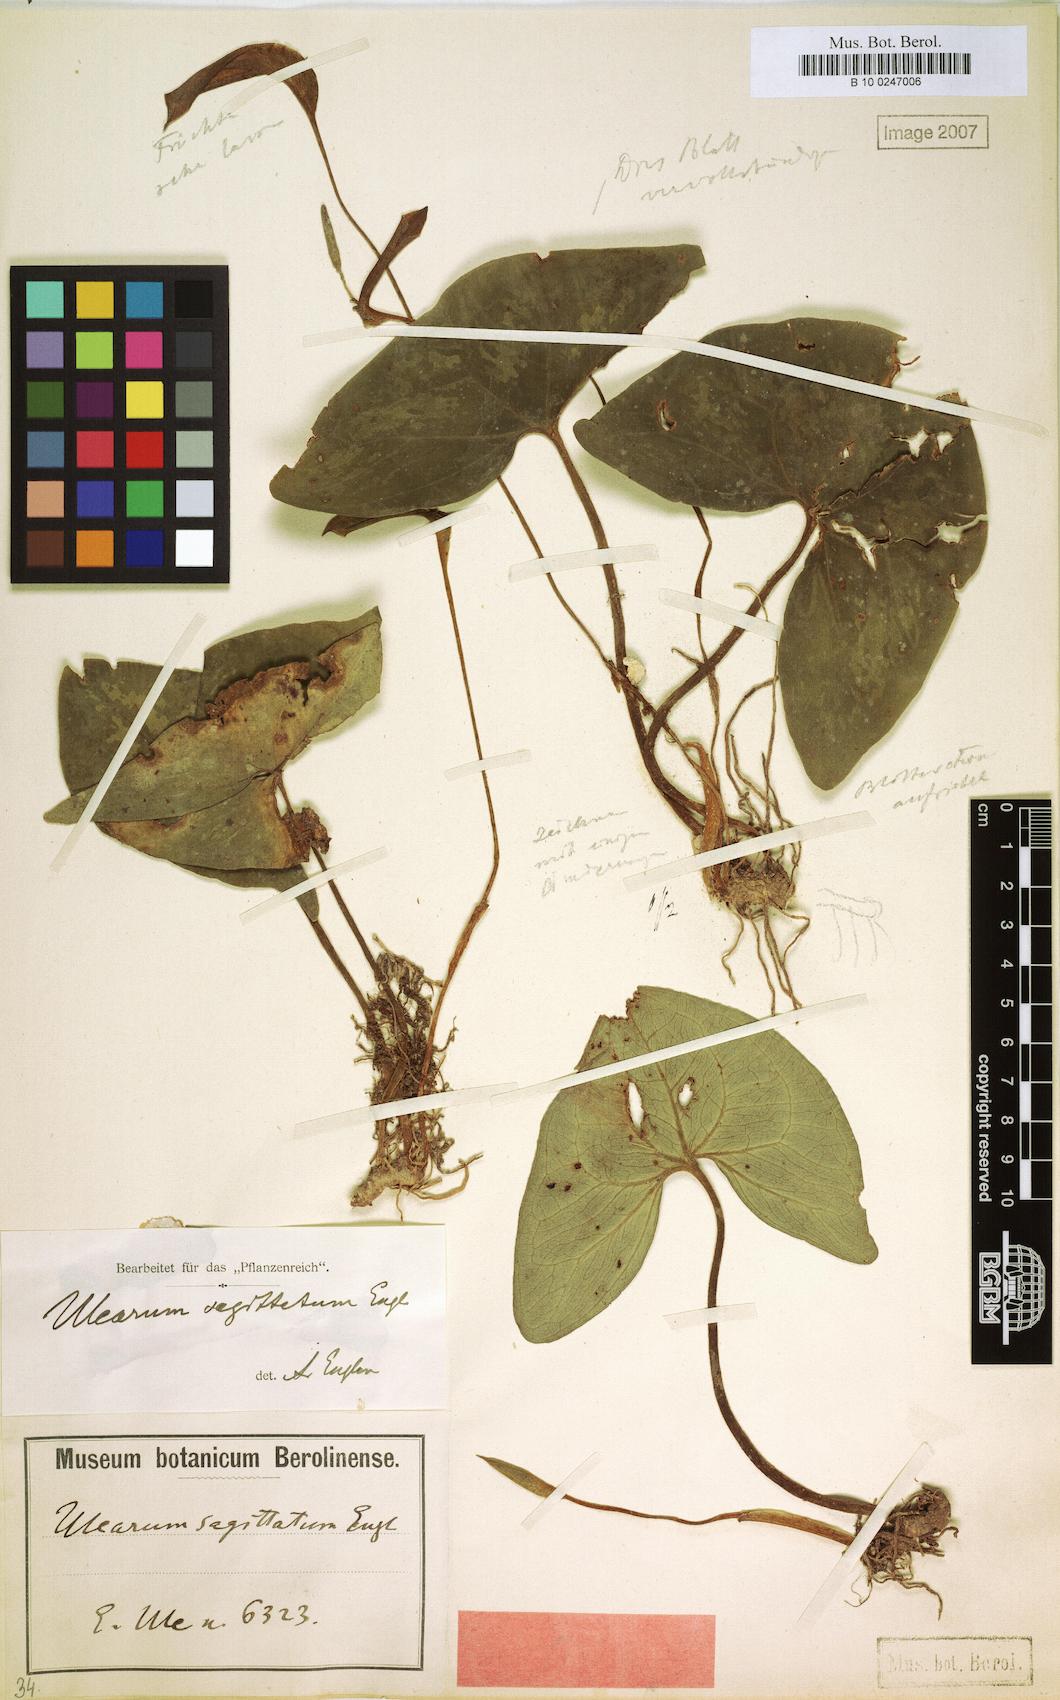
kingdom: Plantae
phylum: Tracheophyta
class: Liliopsida
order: Alismatales
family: Araceae
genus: Ulearum
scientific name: Ulearum sagittatum
